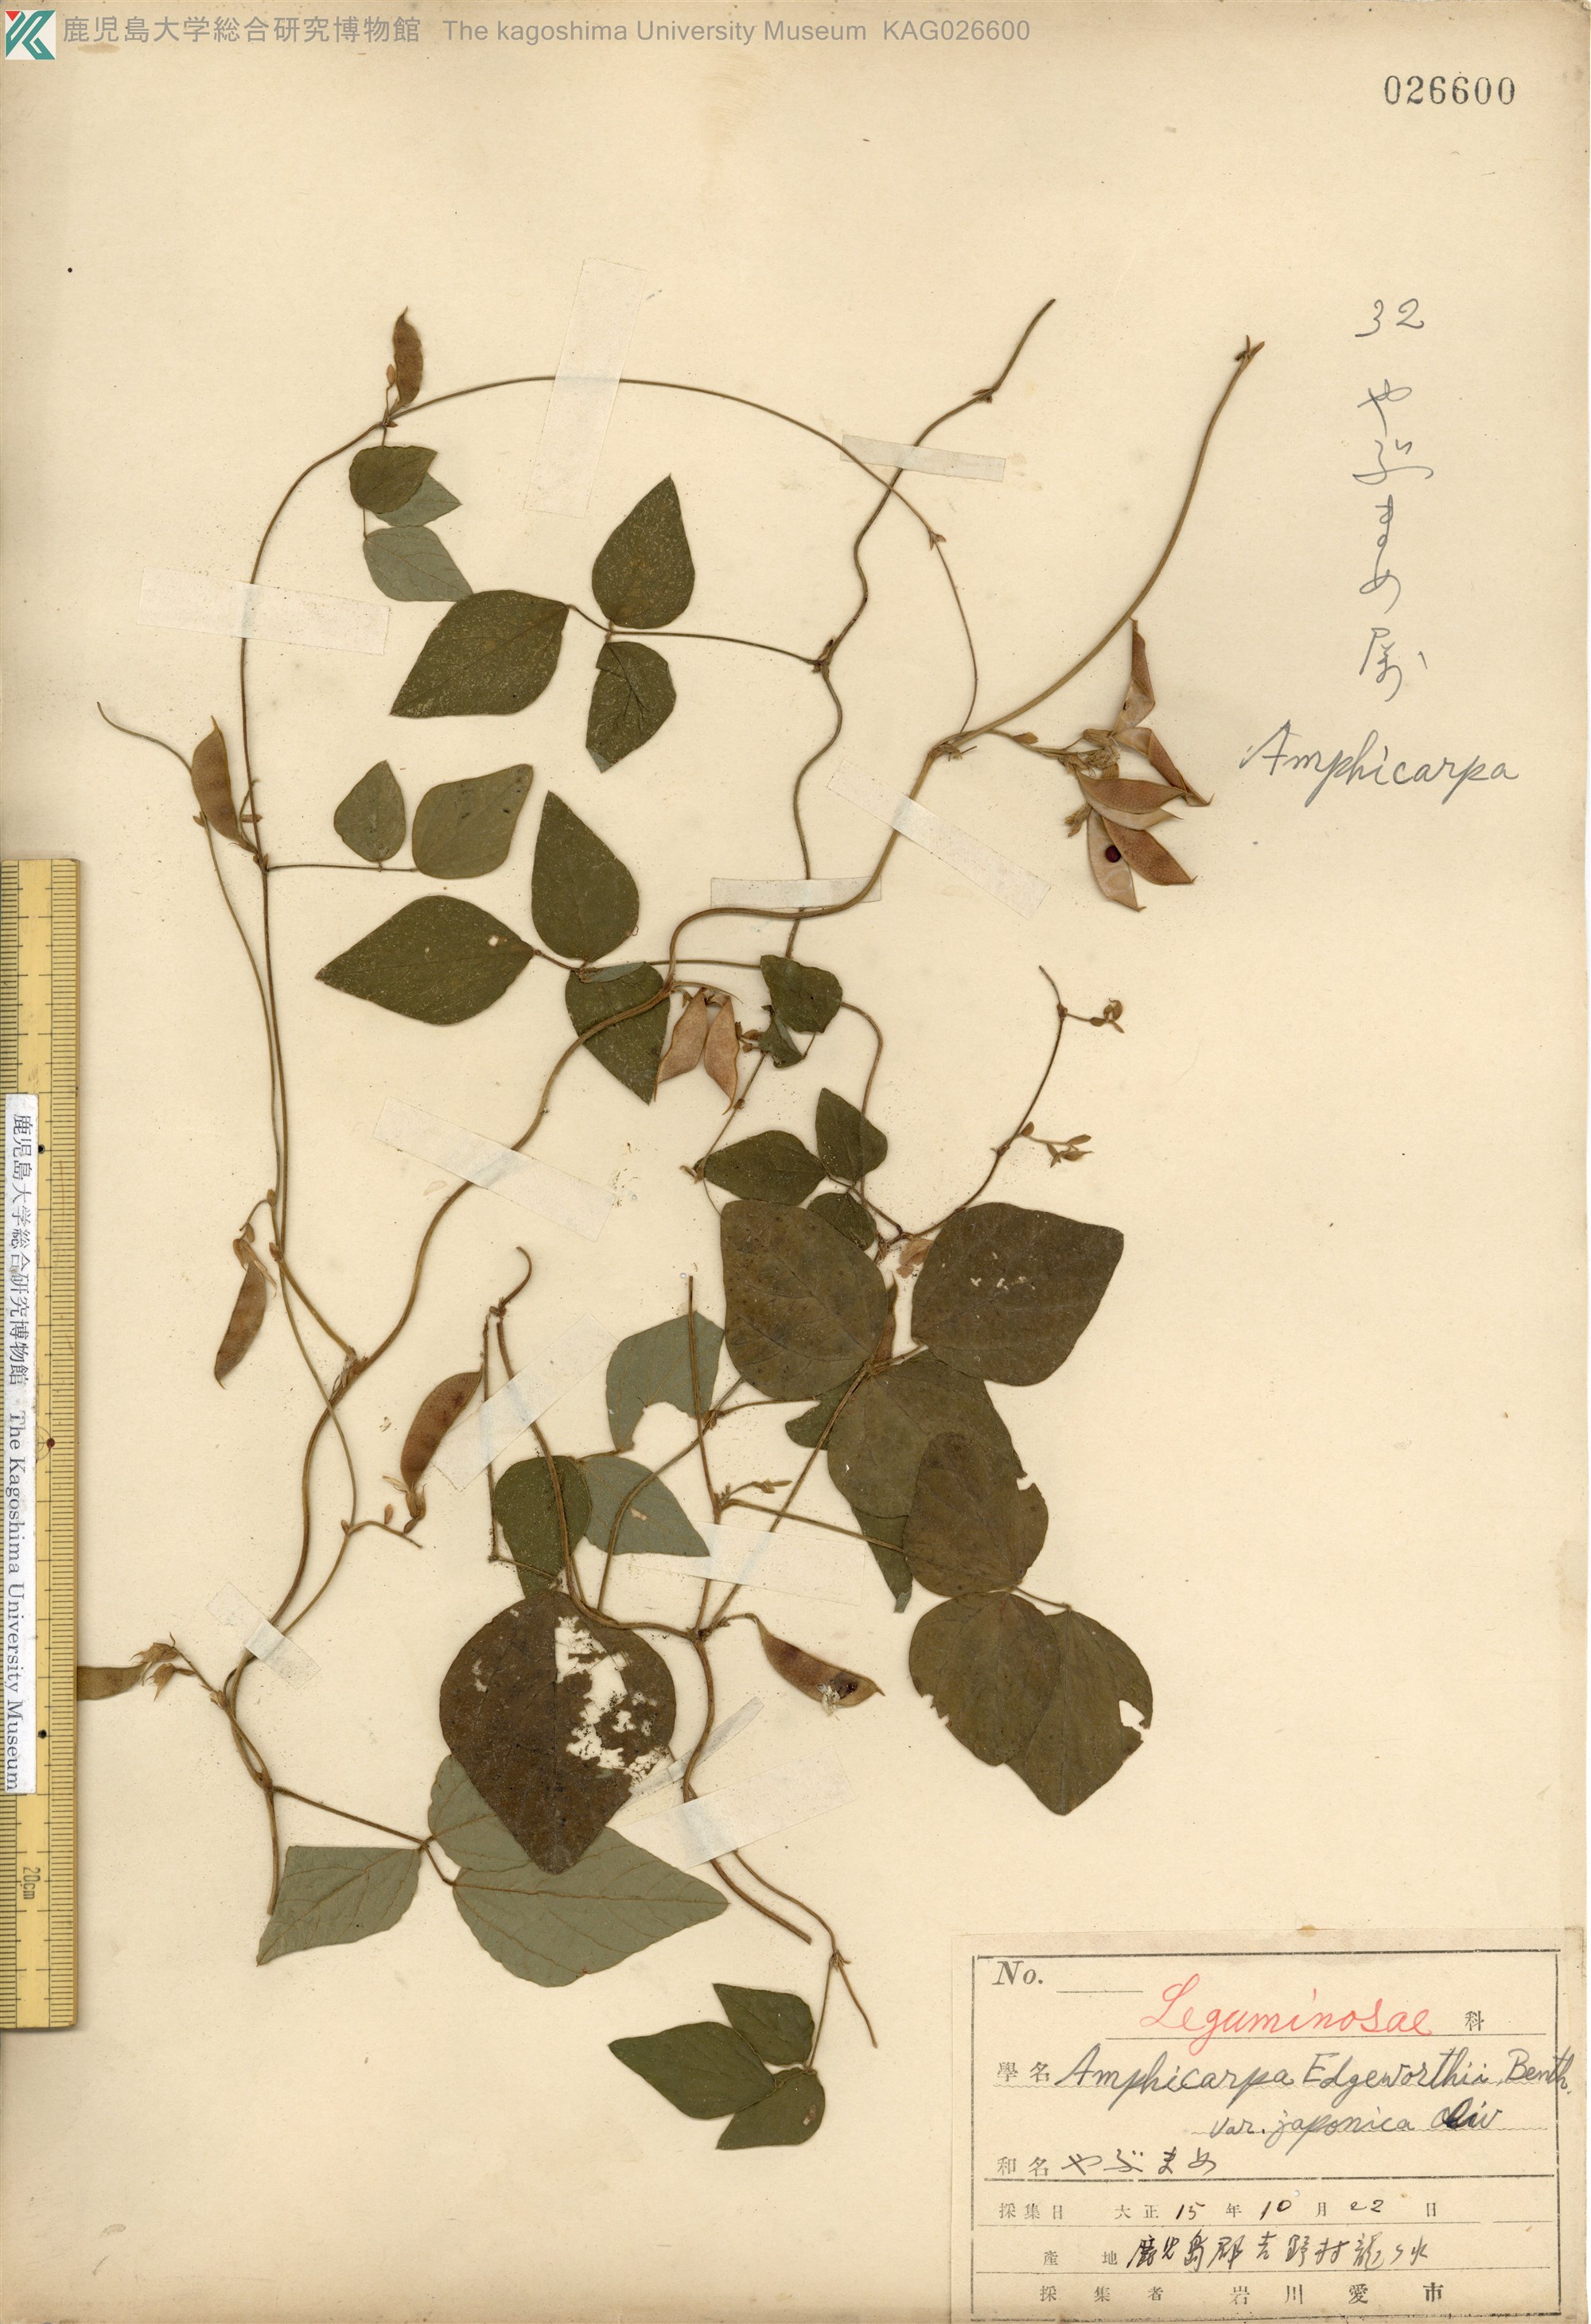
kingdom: Plantae
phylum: Tracheophyta
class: Magnoliopsida
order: Fabales
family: Fabaceae
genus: Amphicarpaea
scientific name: Amphicarpaea edgeworthii
